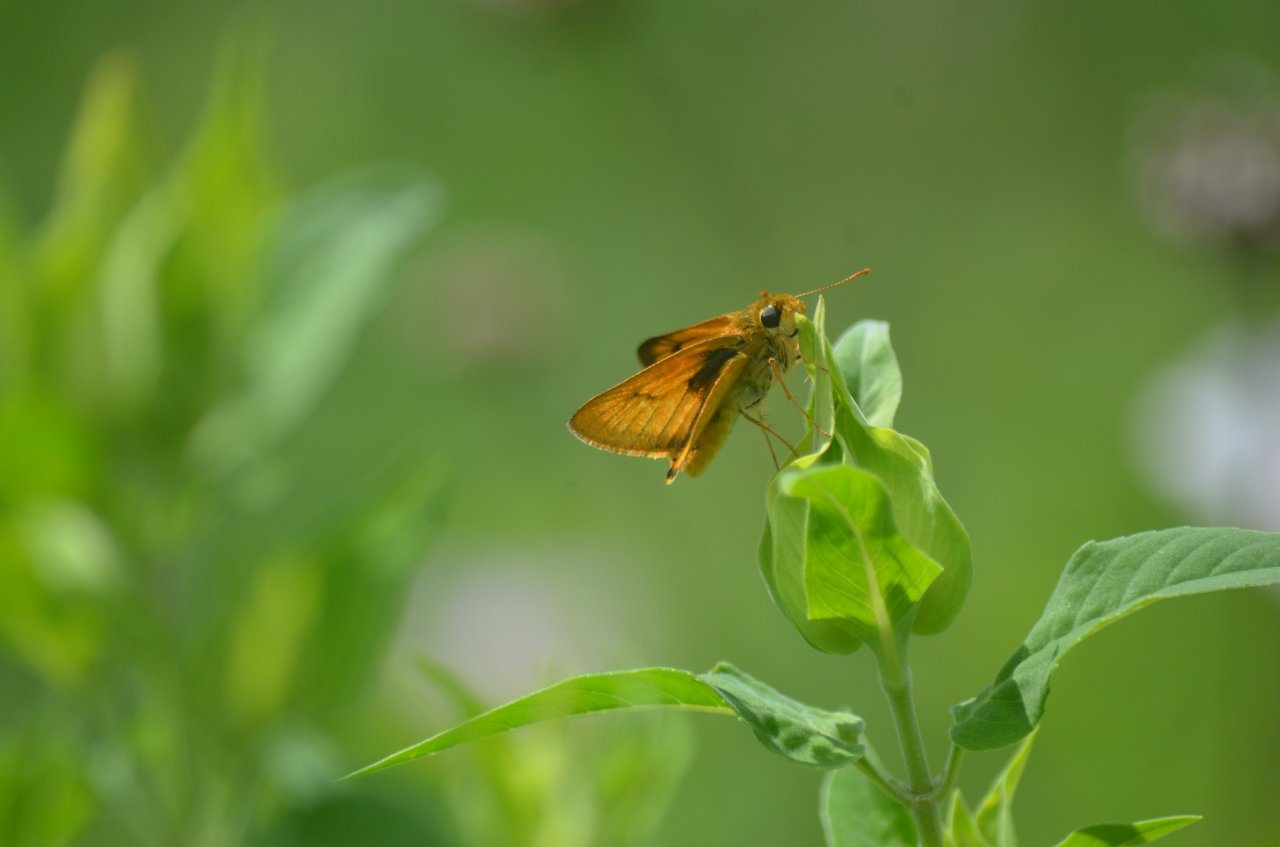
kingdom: Animalia
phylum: Arthropoda
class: Insecta
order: Lepidoptera
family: Hesperiidae
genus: Atrytone
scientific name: Atrytone delaware
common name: Delaware Skipper
